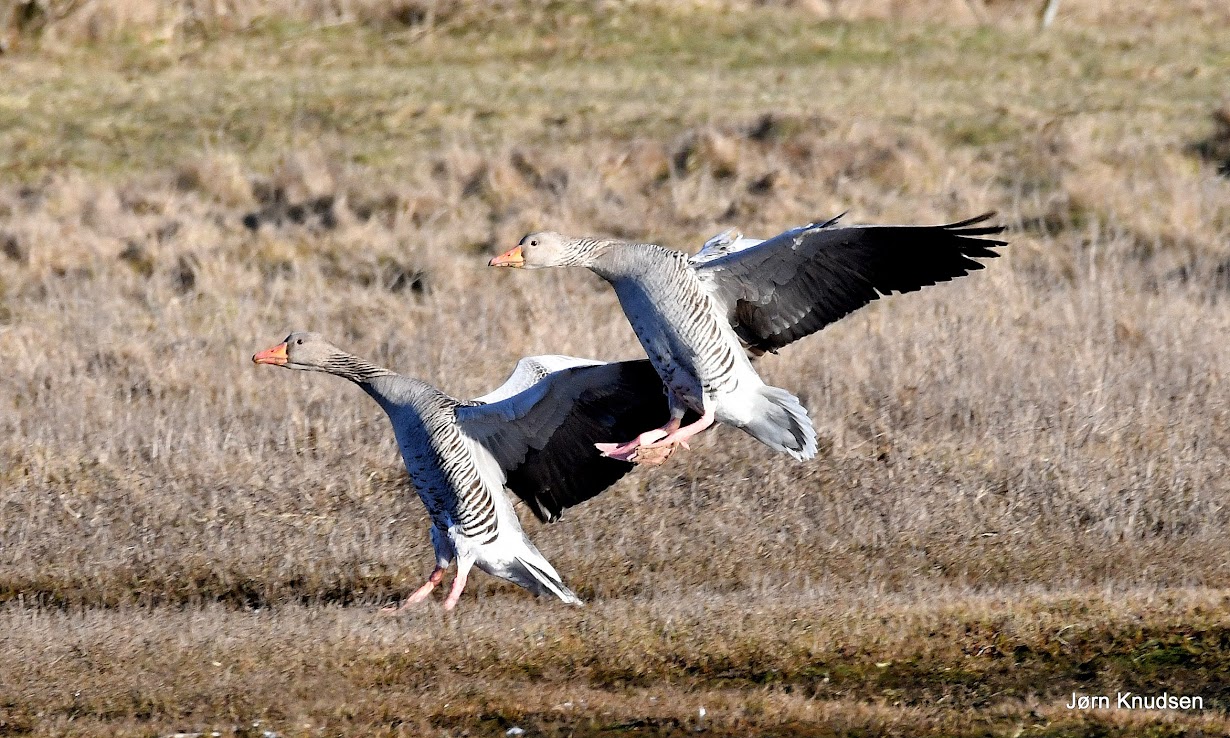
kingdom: Animalia
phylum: Chordata
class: Aves
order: Anseriformes
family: Anatidae
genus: Anser
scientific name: Anser anser
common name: Grågås
